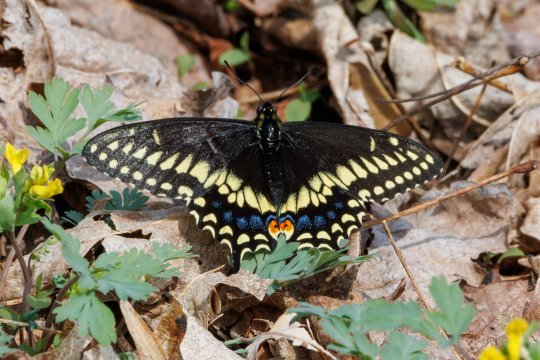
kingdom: Animalia
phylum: Arthropoda
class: Insecta
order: Lepidoptera
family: Papilionidae
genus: Papilio
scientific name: Papilio polyxenes
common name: Black Swallowtail
